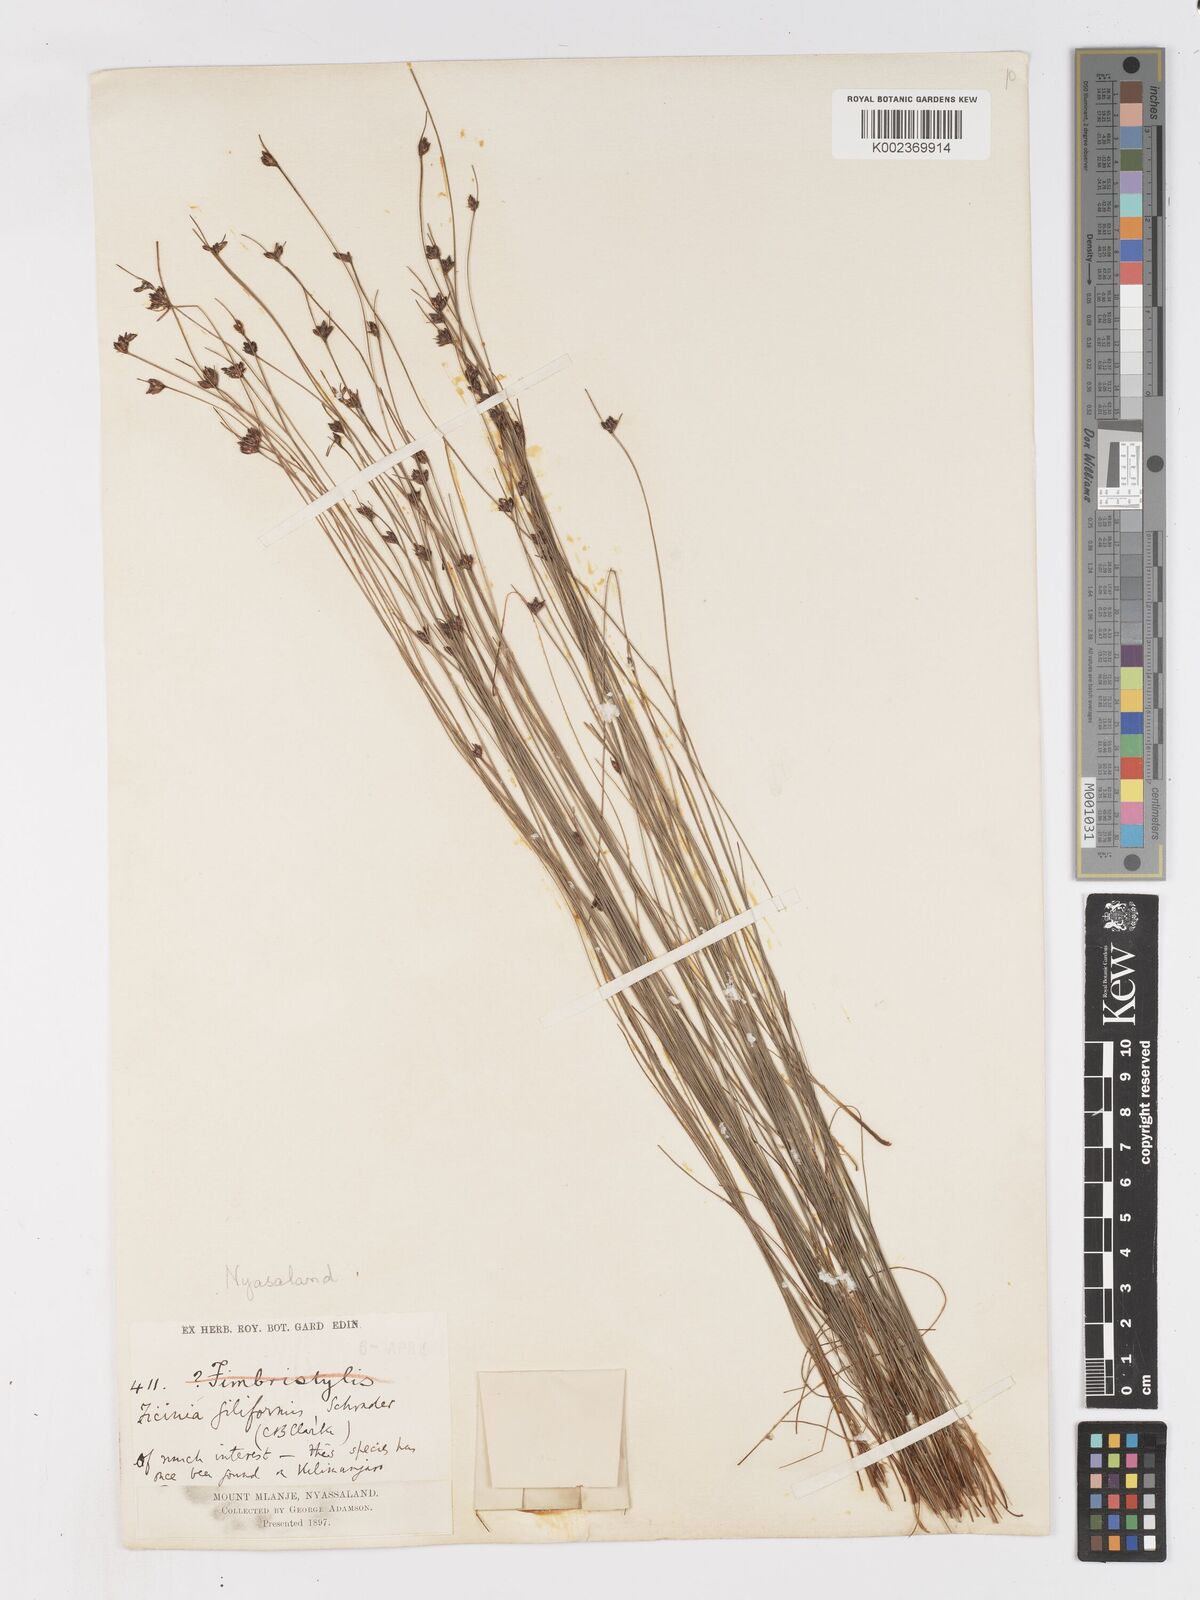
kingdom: Plantae
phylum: Tracheophyta
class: Liliopsida
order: Poales
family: Cyperaceae
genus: Ficinia
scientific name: Ficinia stolonifera
